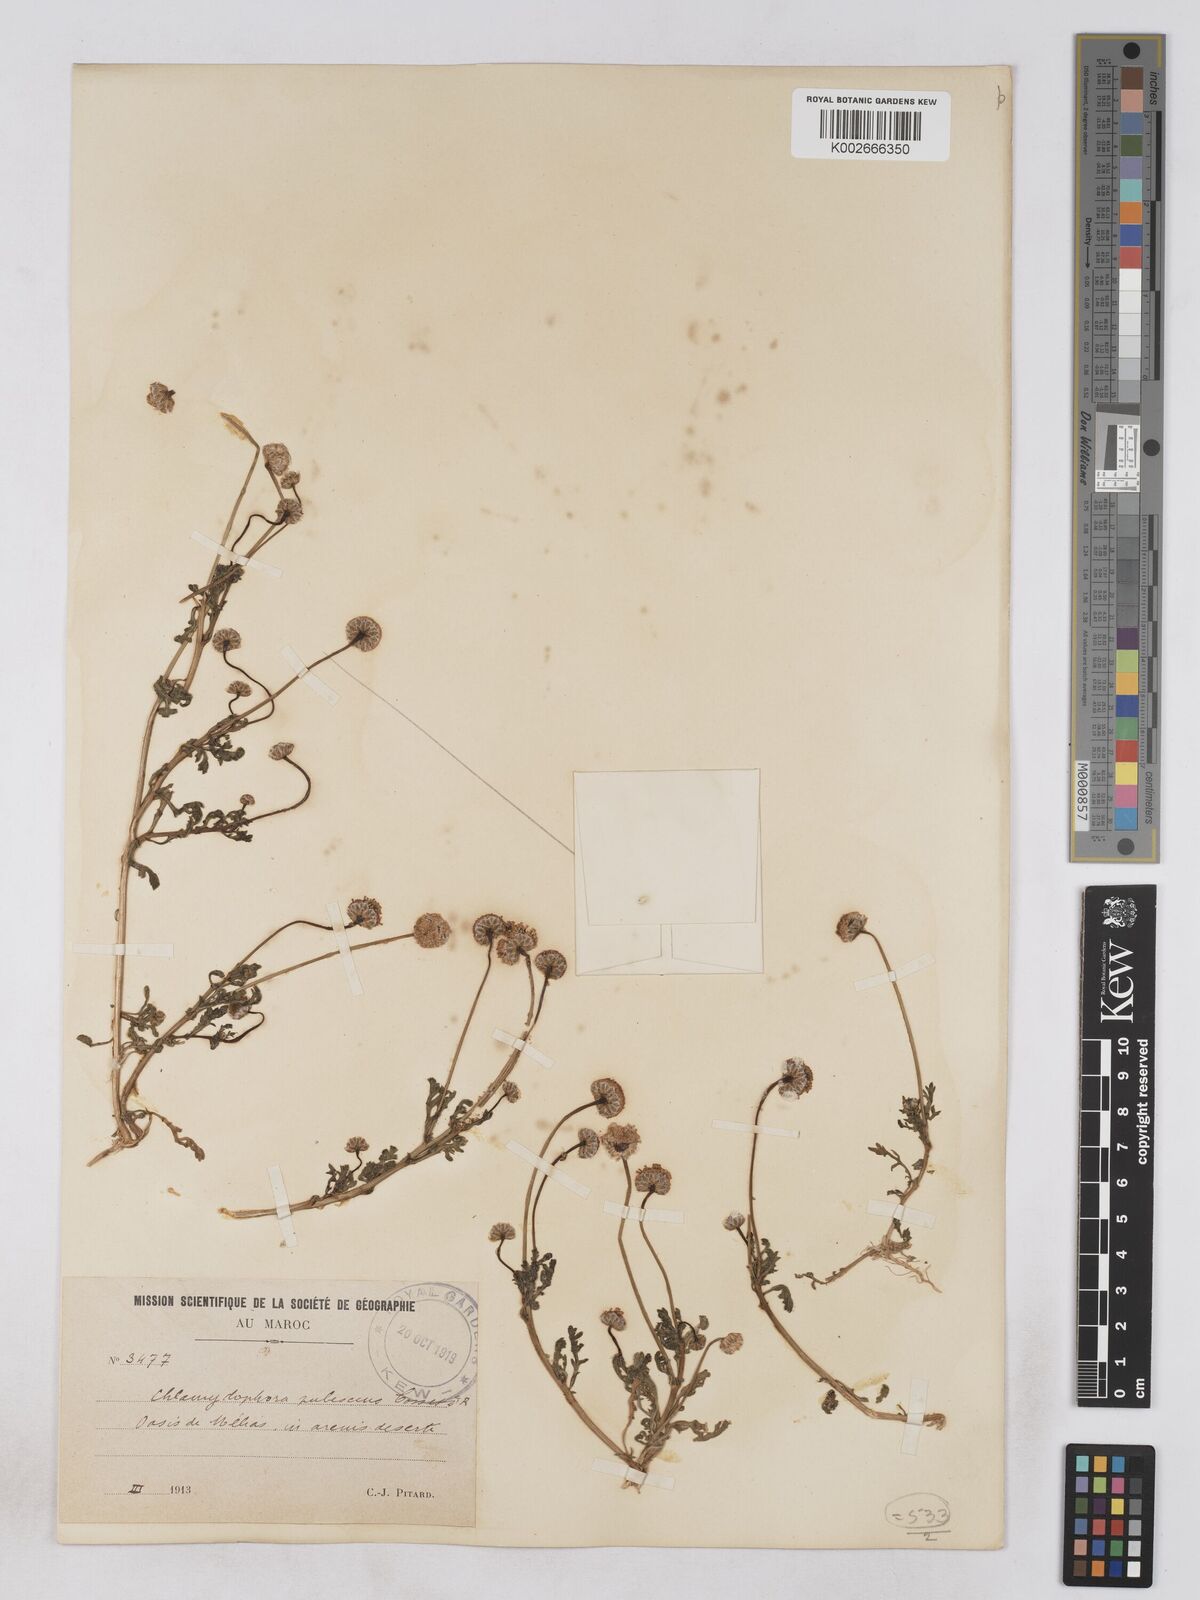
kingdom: Plantae
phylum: Tracheophyta
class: Magnoliopsida
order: Asterales
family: Asteraceae
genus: Otoglyphis
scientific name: Otoglyphis pubescens
